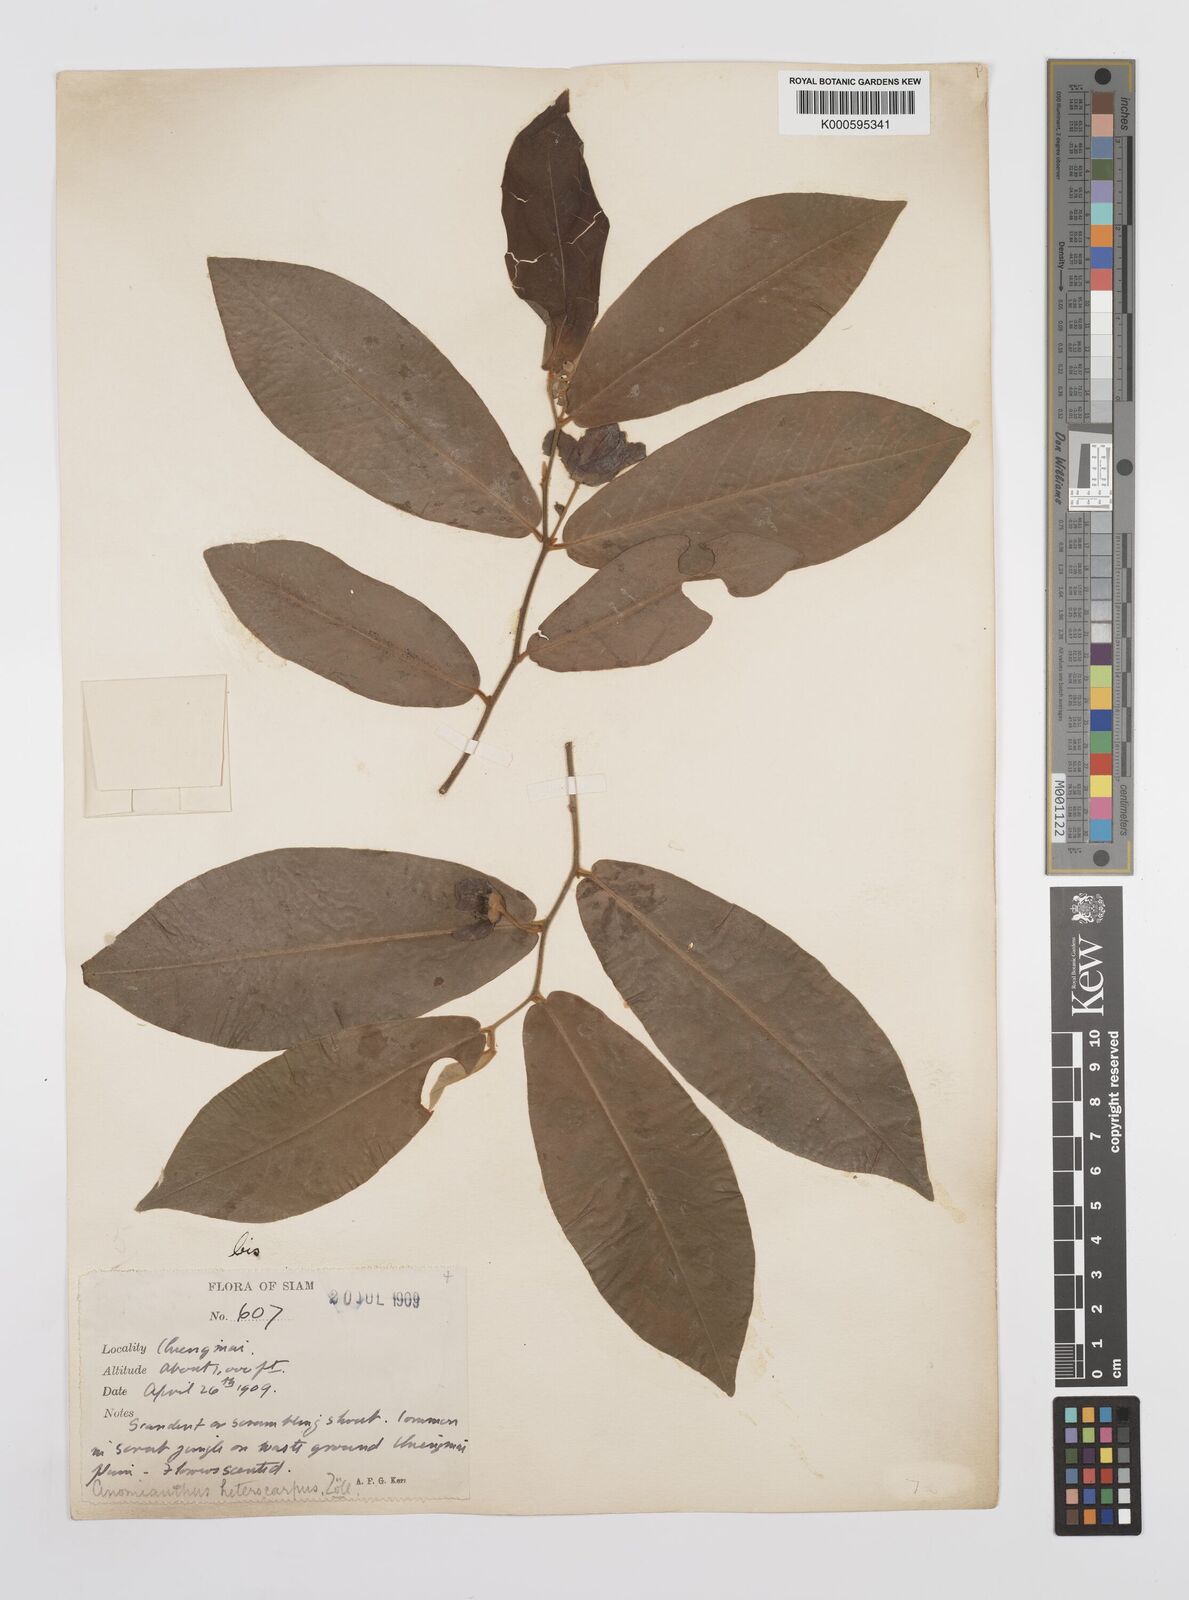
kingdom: Plantae
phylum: Tracheophyta
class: Magnoliopsida
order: Magnoliales
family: Annonaceae
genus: Anomianthus
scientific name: Anomianthus heterocarpus
